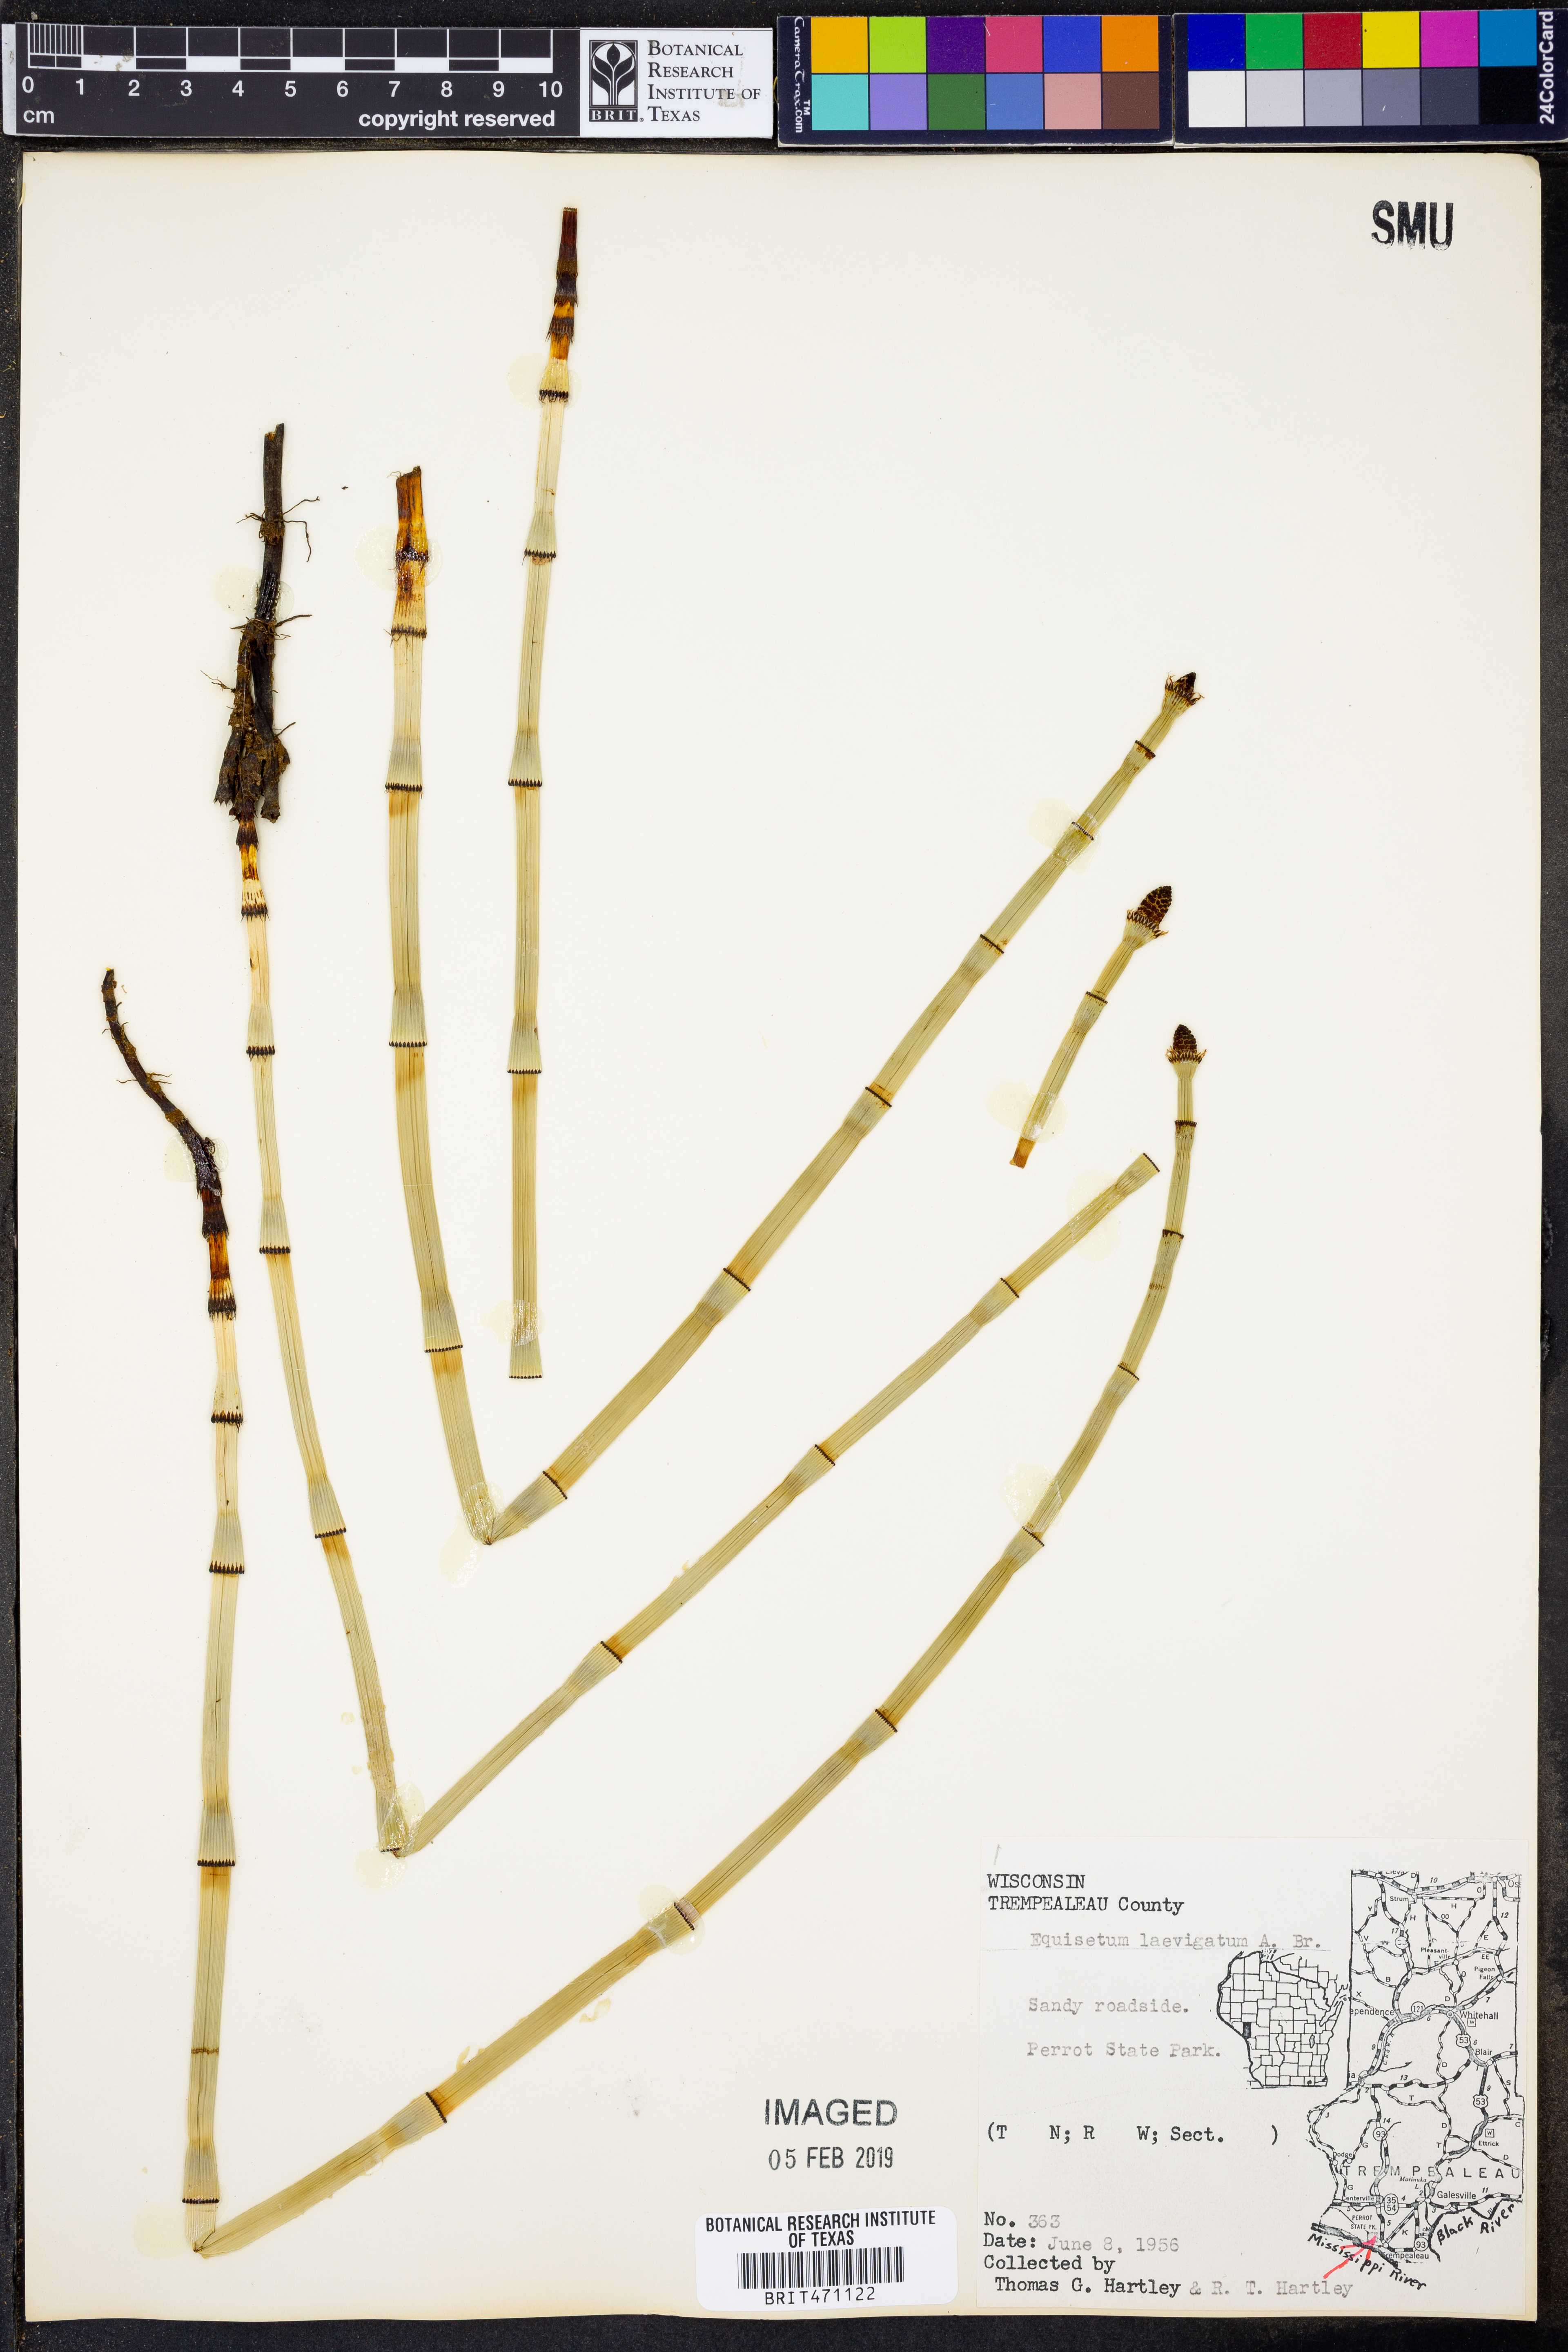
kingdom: Plantae
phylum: Tracheophyta
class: Polypodiopsida
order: Equisetales
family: Equisetaceae
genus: Equisetum
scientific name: Equisetum laevigatum
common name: Smooth scouring-rush
